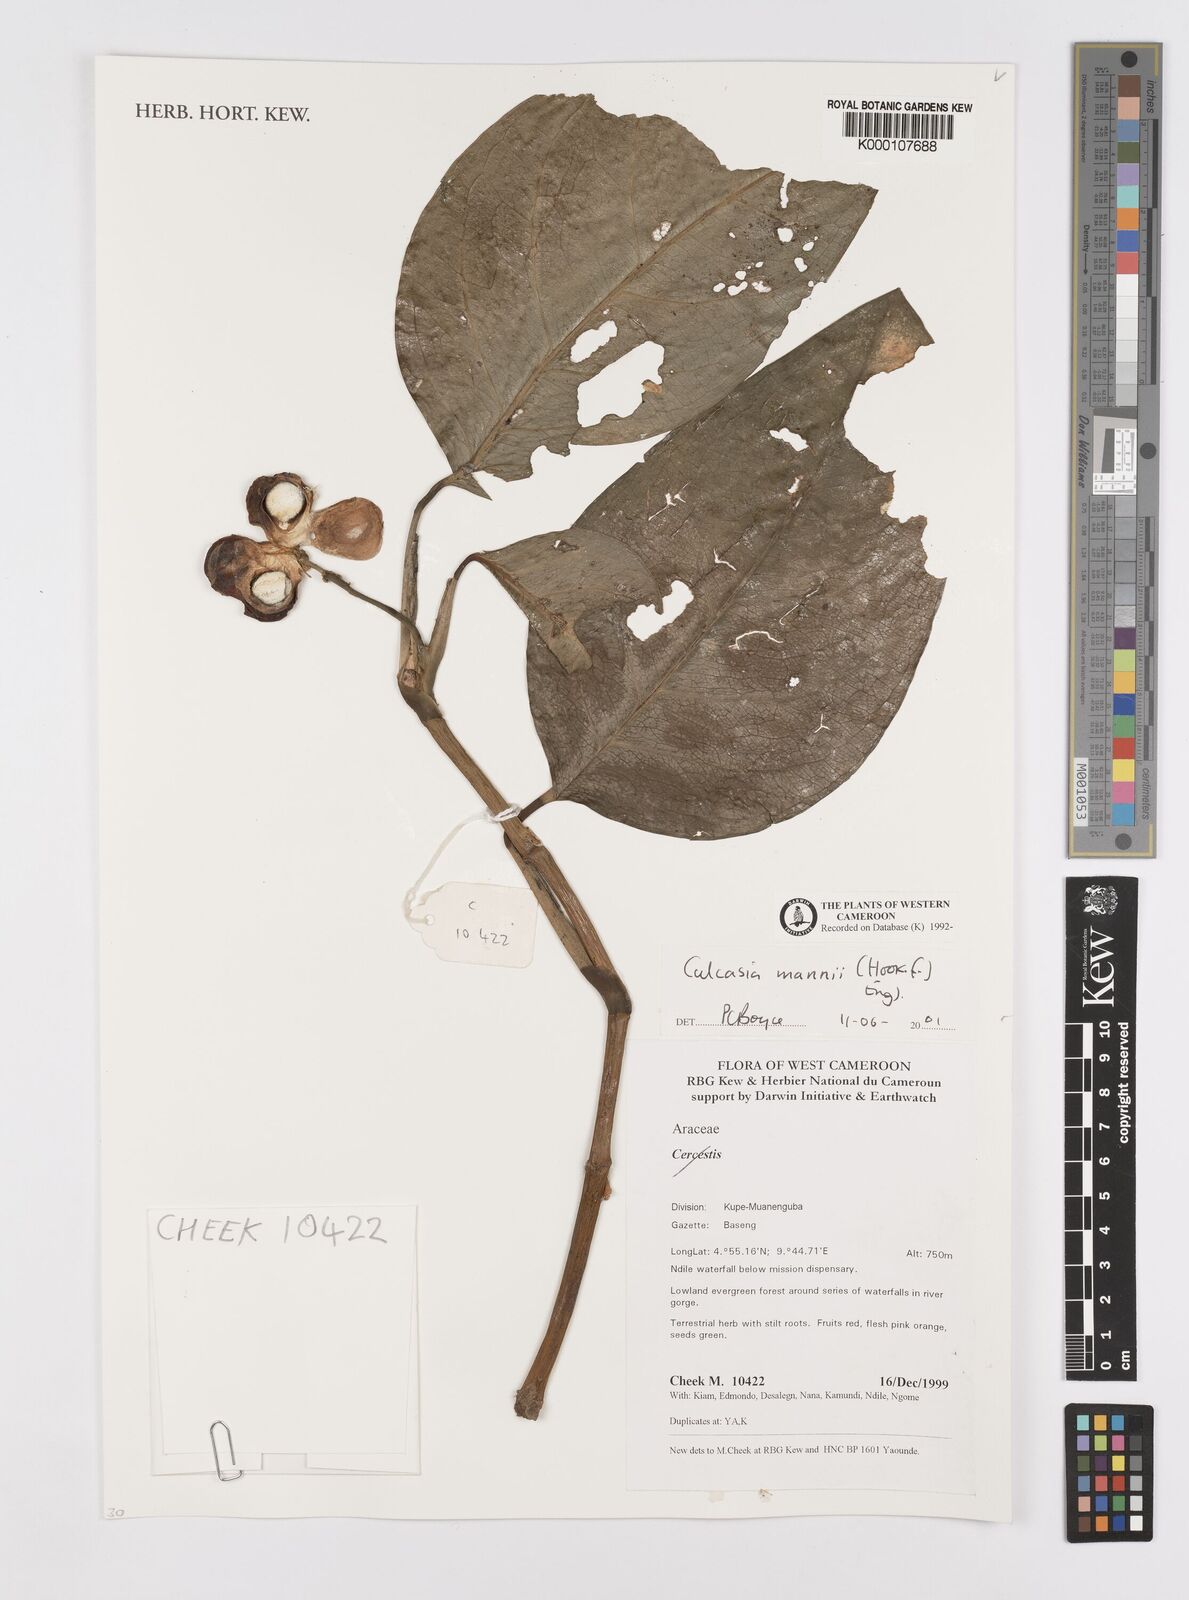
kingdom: Plantae
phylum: Tracheophyta
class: Liliopsida
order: Alismatales
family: Araceae
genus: Culcasia
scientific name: Culcasia mannii
